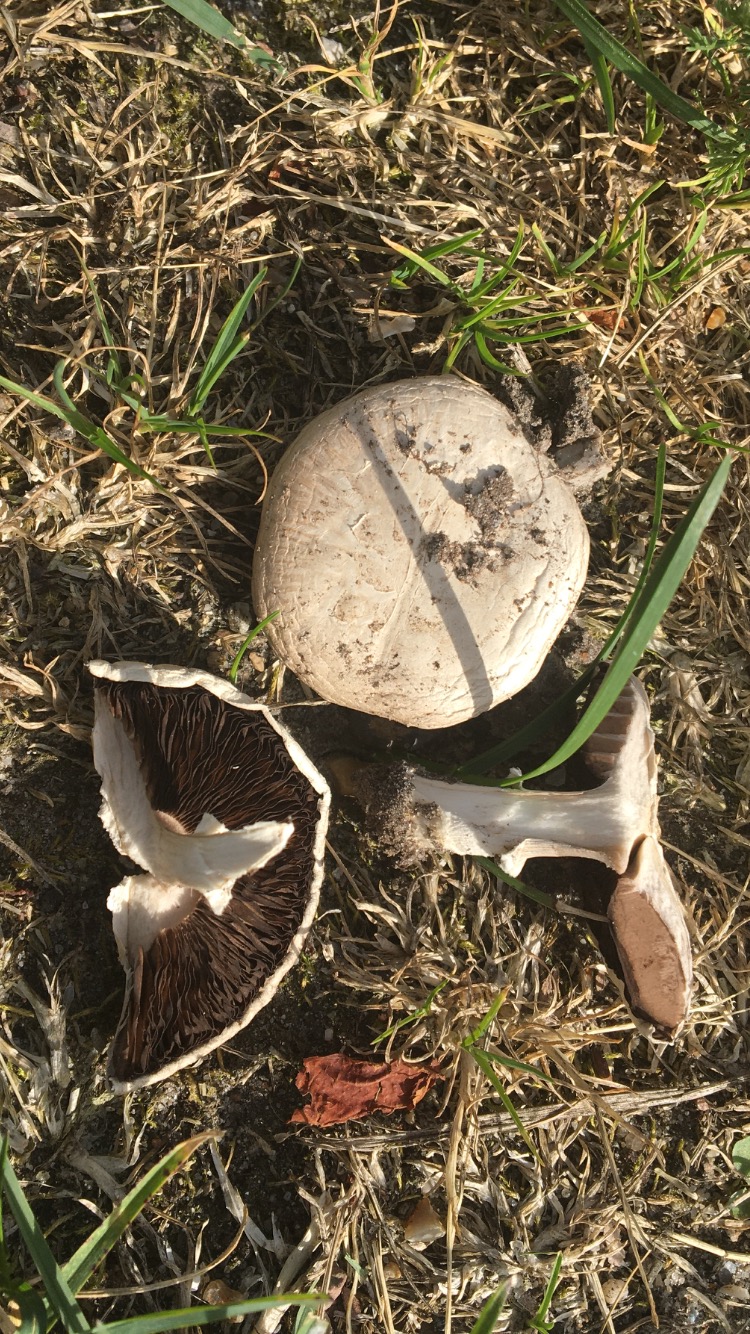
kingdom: Fungi
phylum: Basidiomycota
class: Agaricomycetes
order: Agaricales
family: Agaricaceae
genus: Agaricus
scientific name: Agaricus
